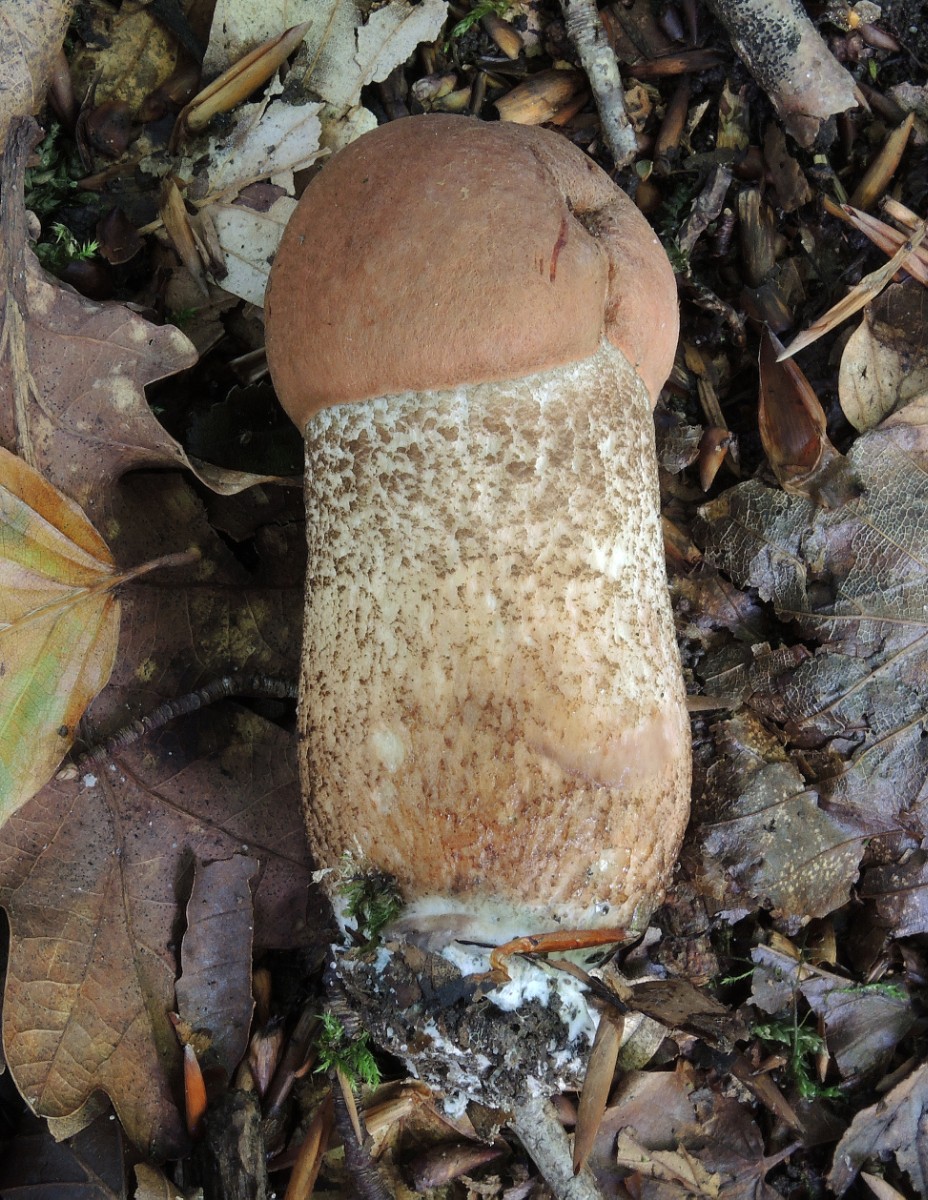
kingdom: Fungi
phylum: Basidiomycota
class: Agaricomycetes
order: Boletales
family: Boletaceae
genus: Leccinum
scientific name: Leccinum aurantiacum
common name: rustrød skælrørhat
